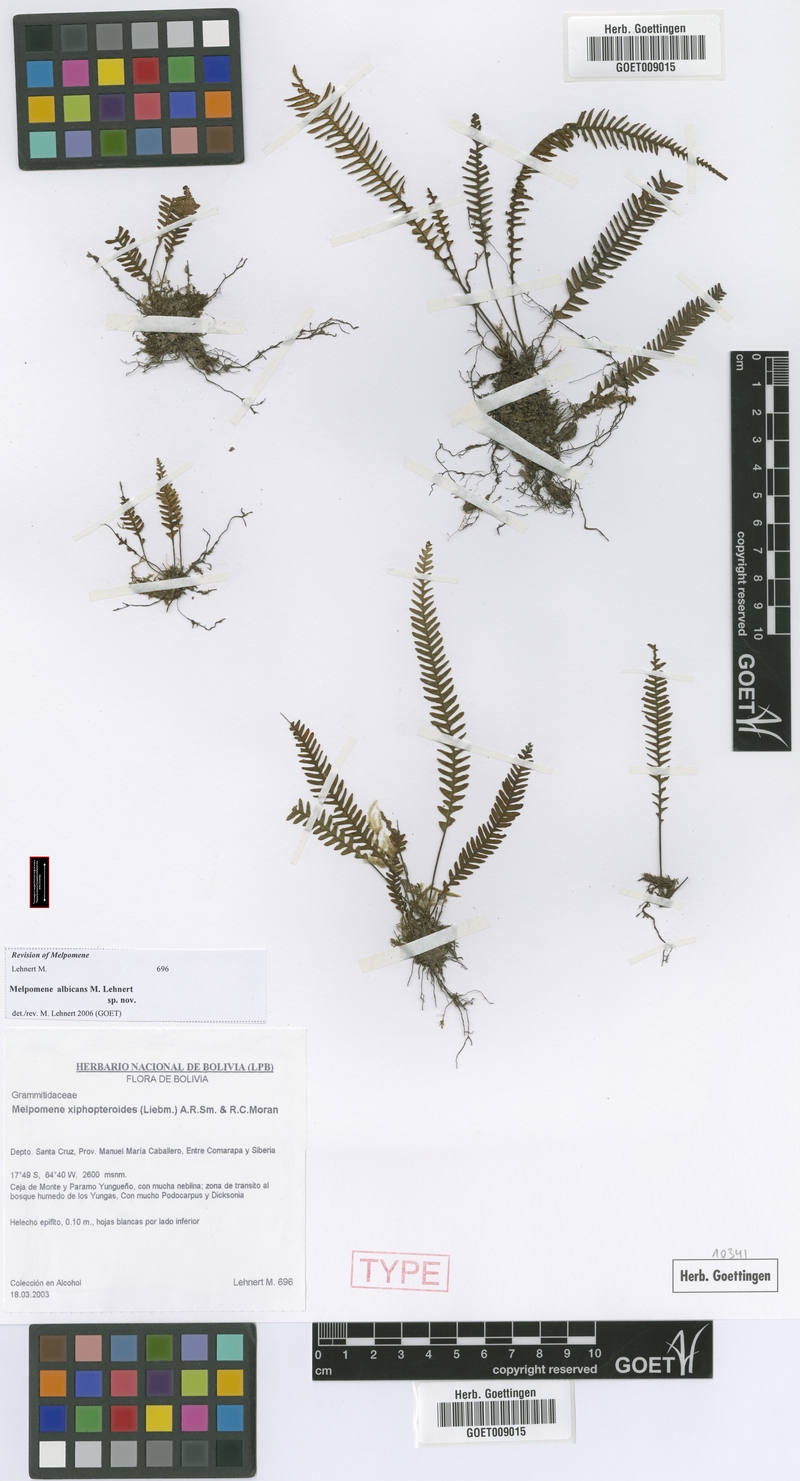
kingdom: Plantae
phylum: Tracheophyta
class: Polypodiopsida
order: Polypodiales
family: Polypodiaceae
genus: Melpomene
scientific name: Melpomene albicans
